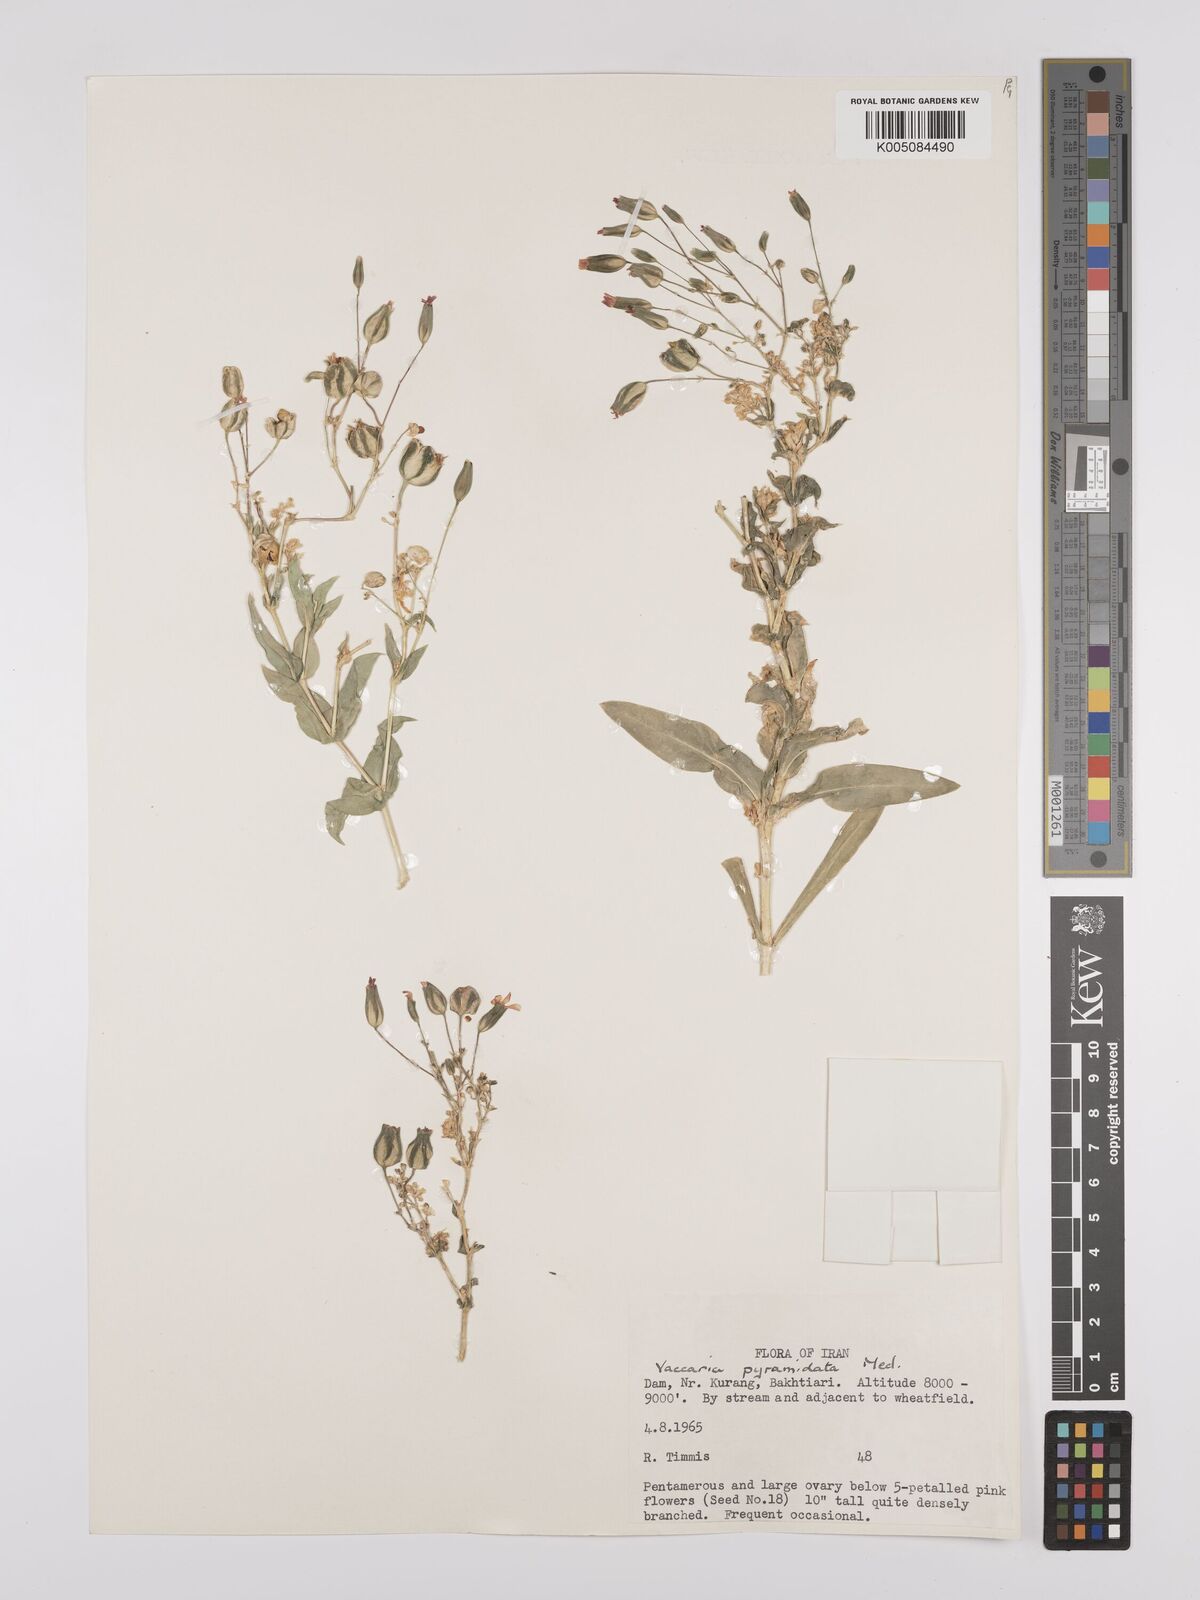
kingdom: Plantae
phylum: Tracheophyta
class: Magnoliopsida
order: Caryophyllales
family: Caryophyllaceae
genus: Gypsophila
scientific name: Gypsophila vaccaria
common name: Cow soapwort
